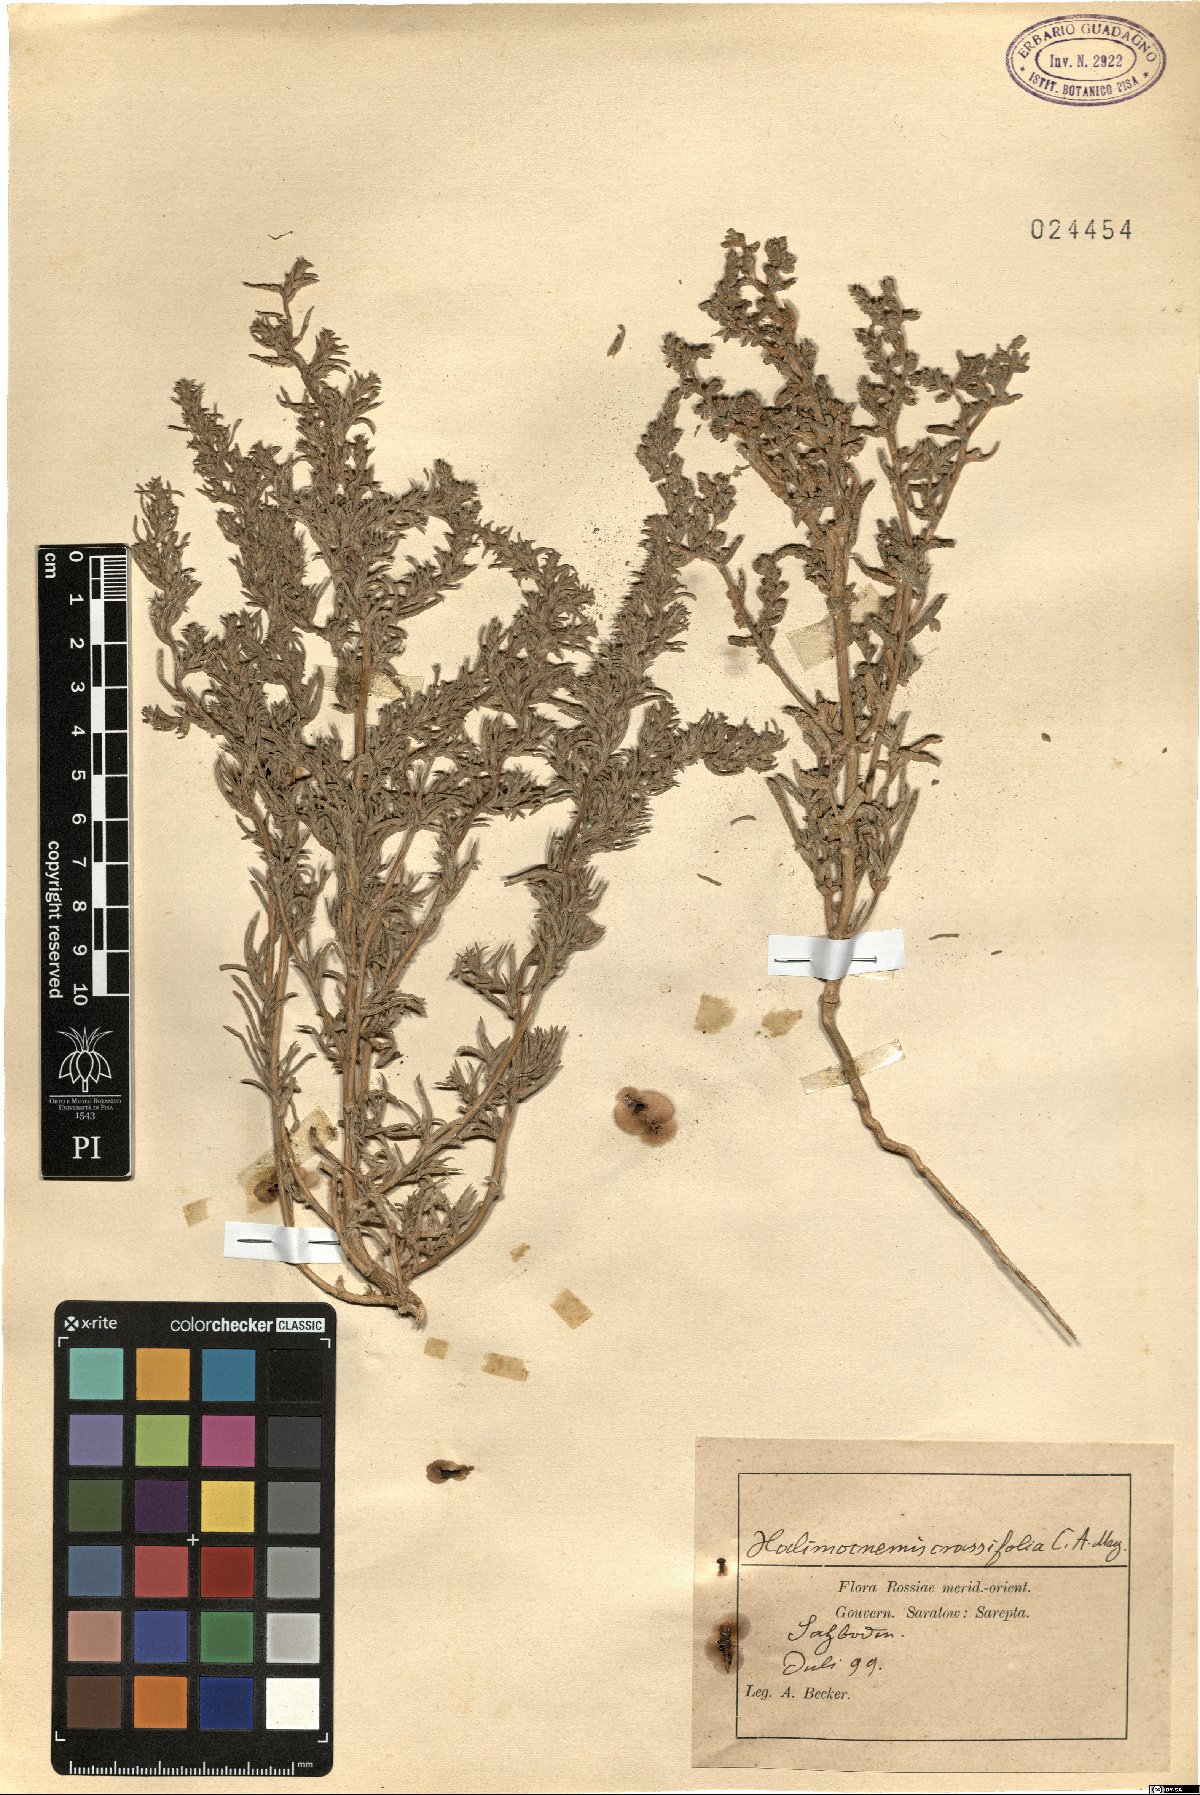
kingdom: Plantae
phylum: Tracheophyta
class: Magnoliopsida
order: Caryophyllales
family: Amaranthaceae
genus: Petrosimonia
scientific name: Petrosimonia oppositifolia
